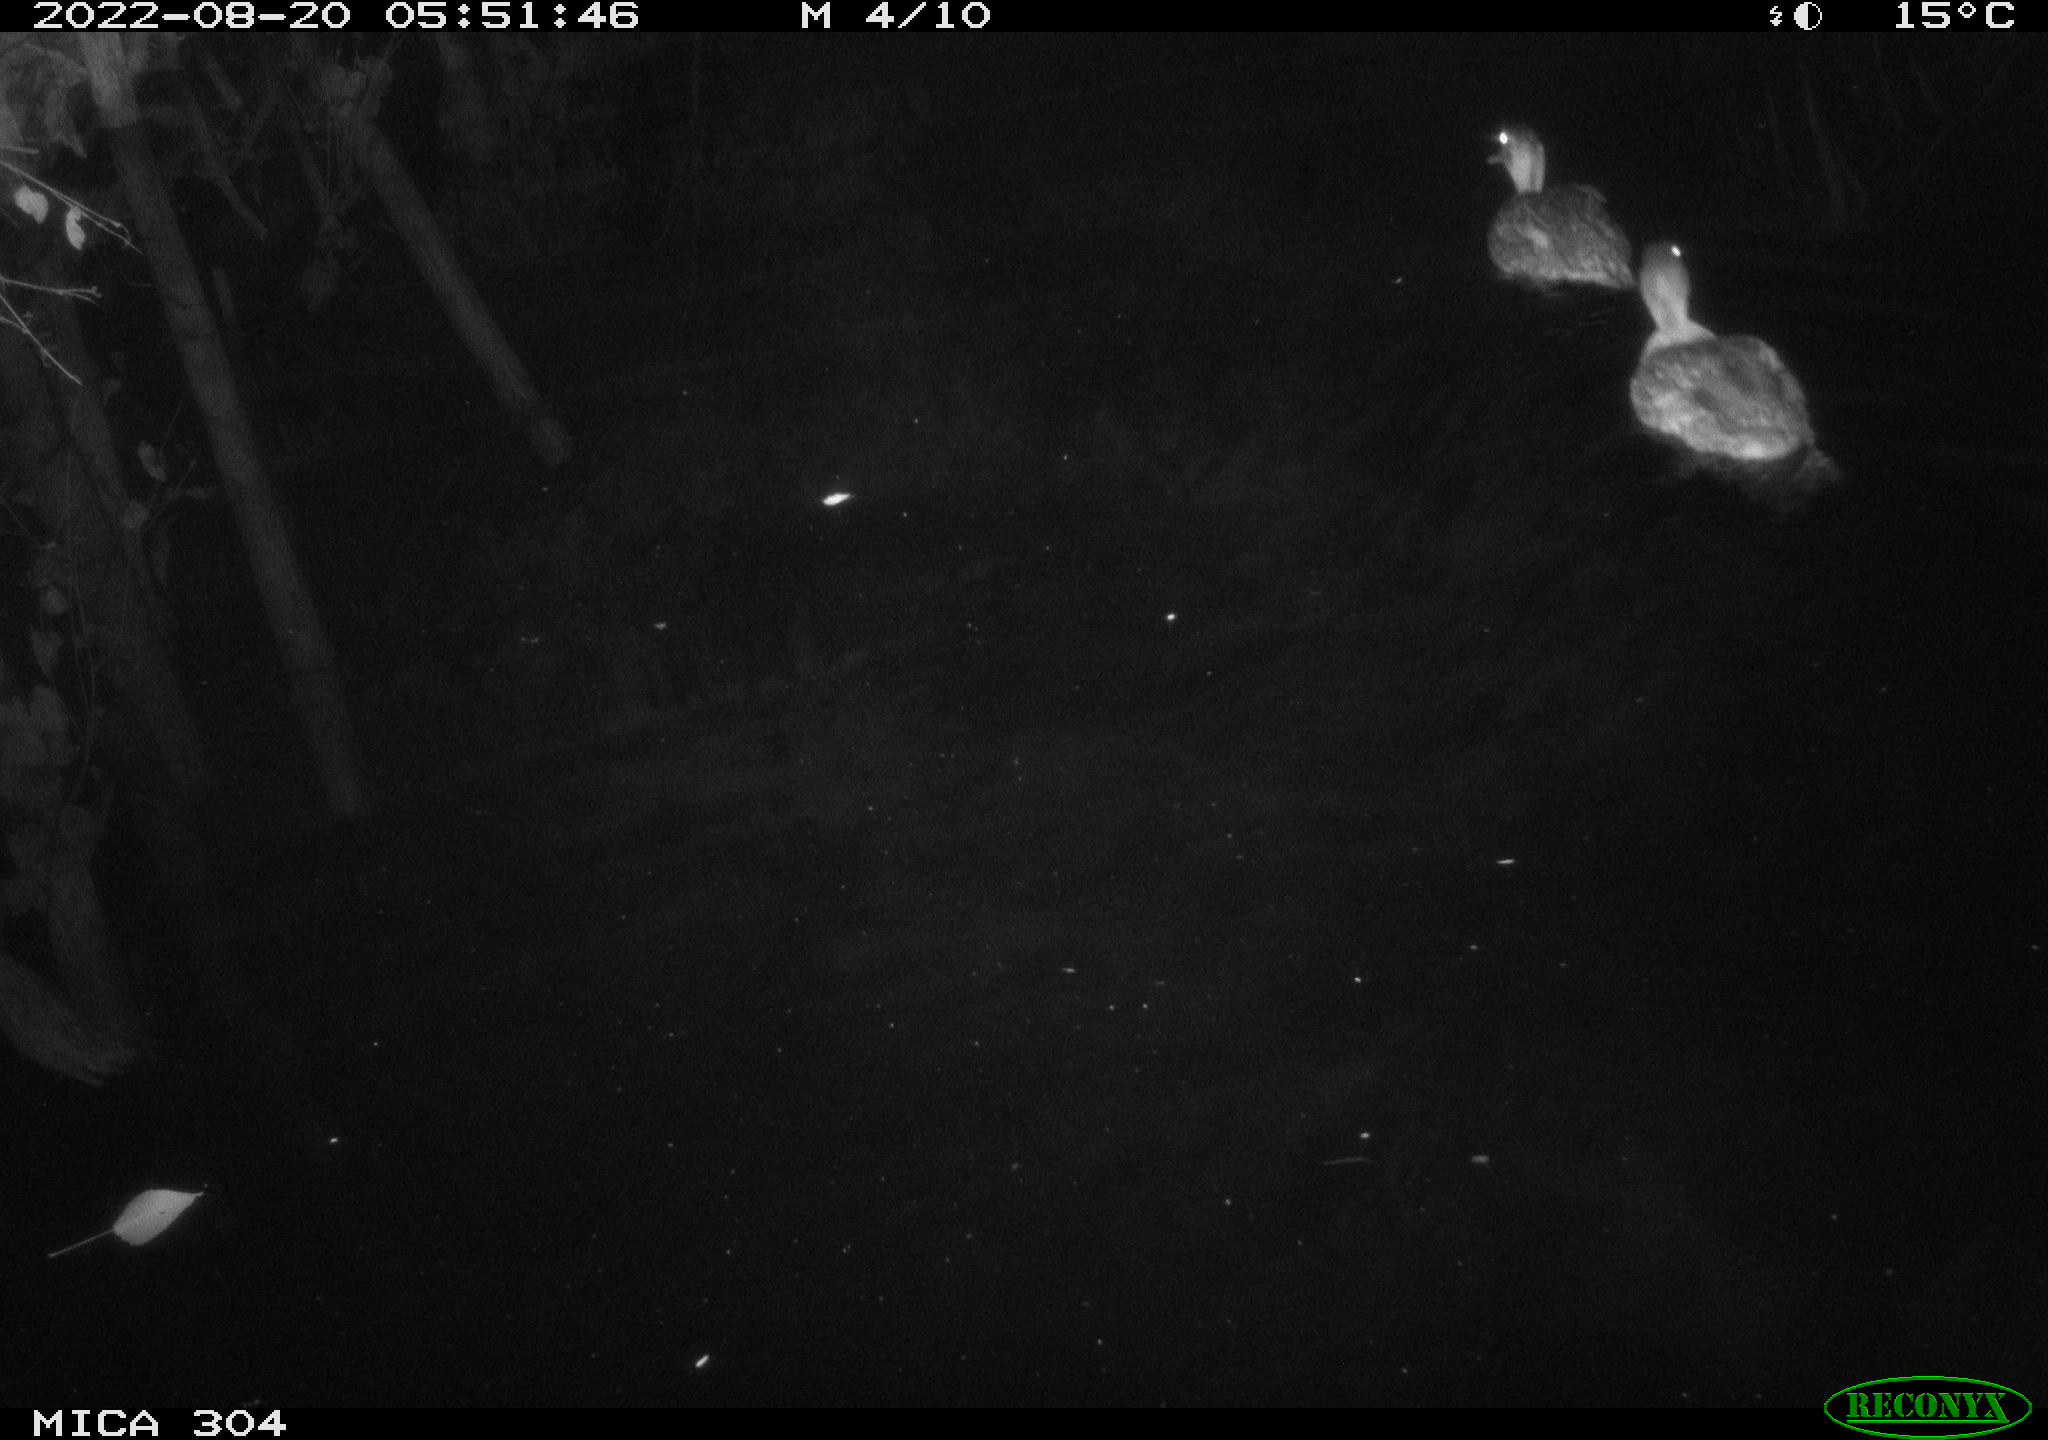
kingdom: Animalia
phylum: Chordata
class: Aves
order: Anseriformes
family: Anatidae
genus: Mareca
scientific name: Mareca strepera
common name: Gadwall
